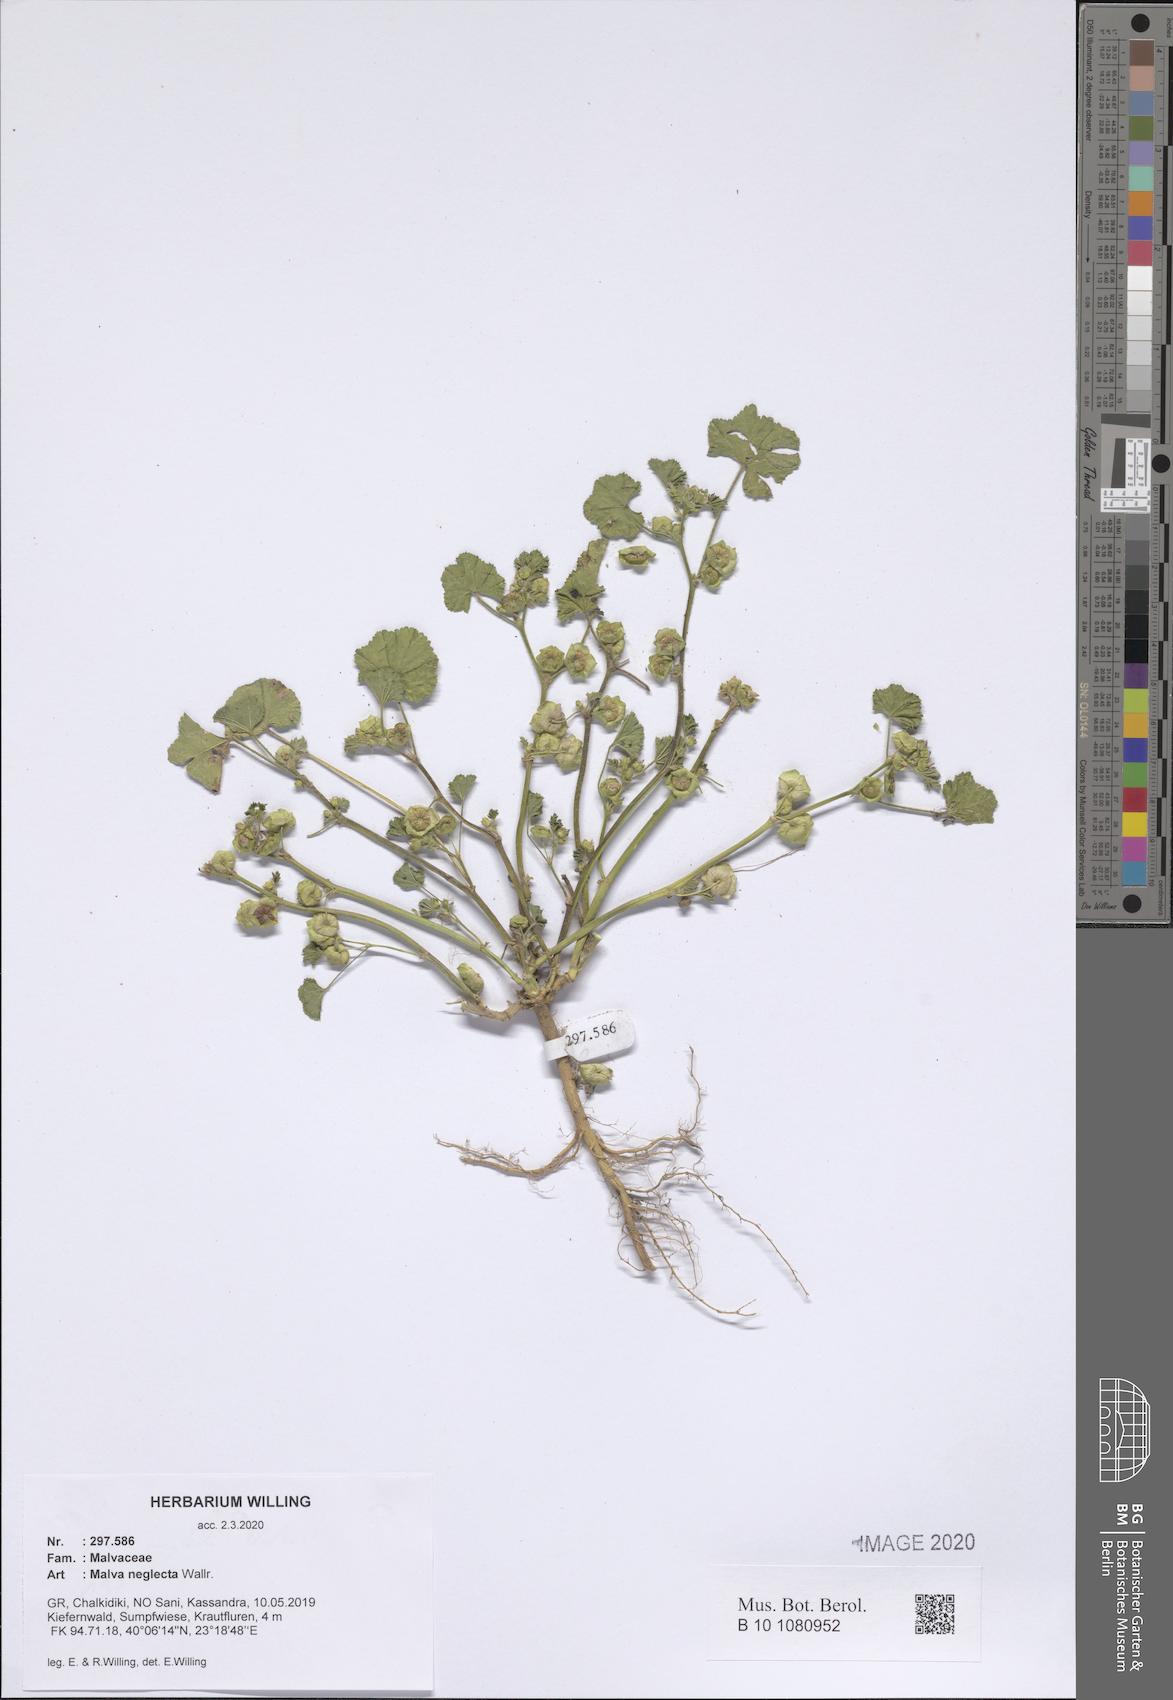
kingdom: Plantae
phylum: Tracheophyta
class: Magnoliopsida
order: Malvales
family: Malvaceae
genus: Malva
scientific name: Malva neglecta
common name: Common mallow
